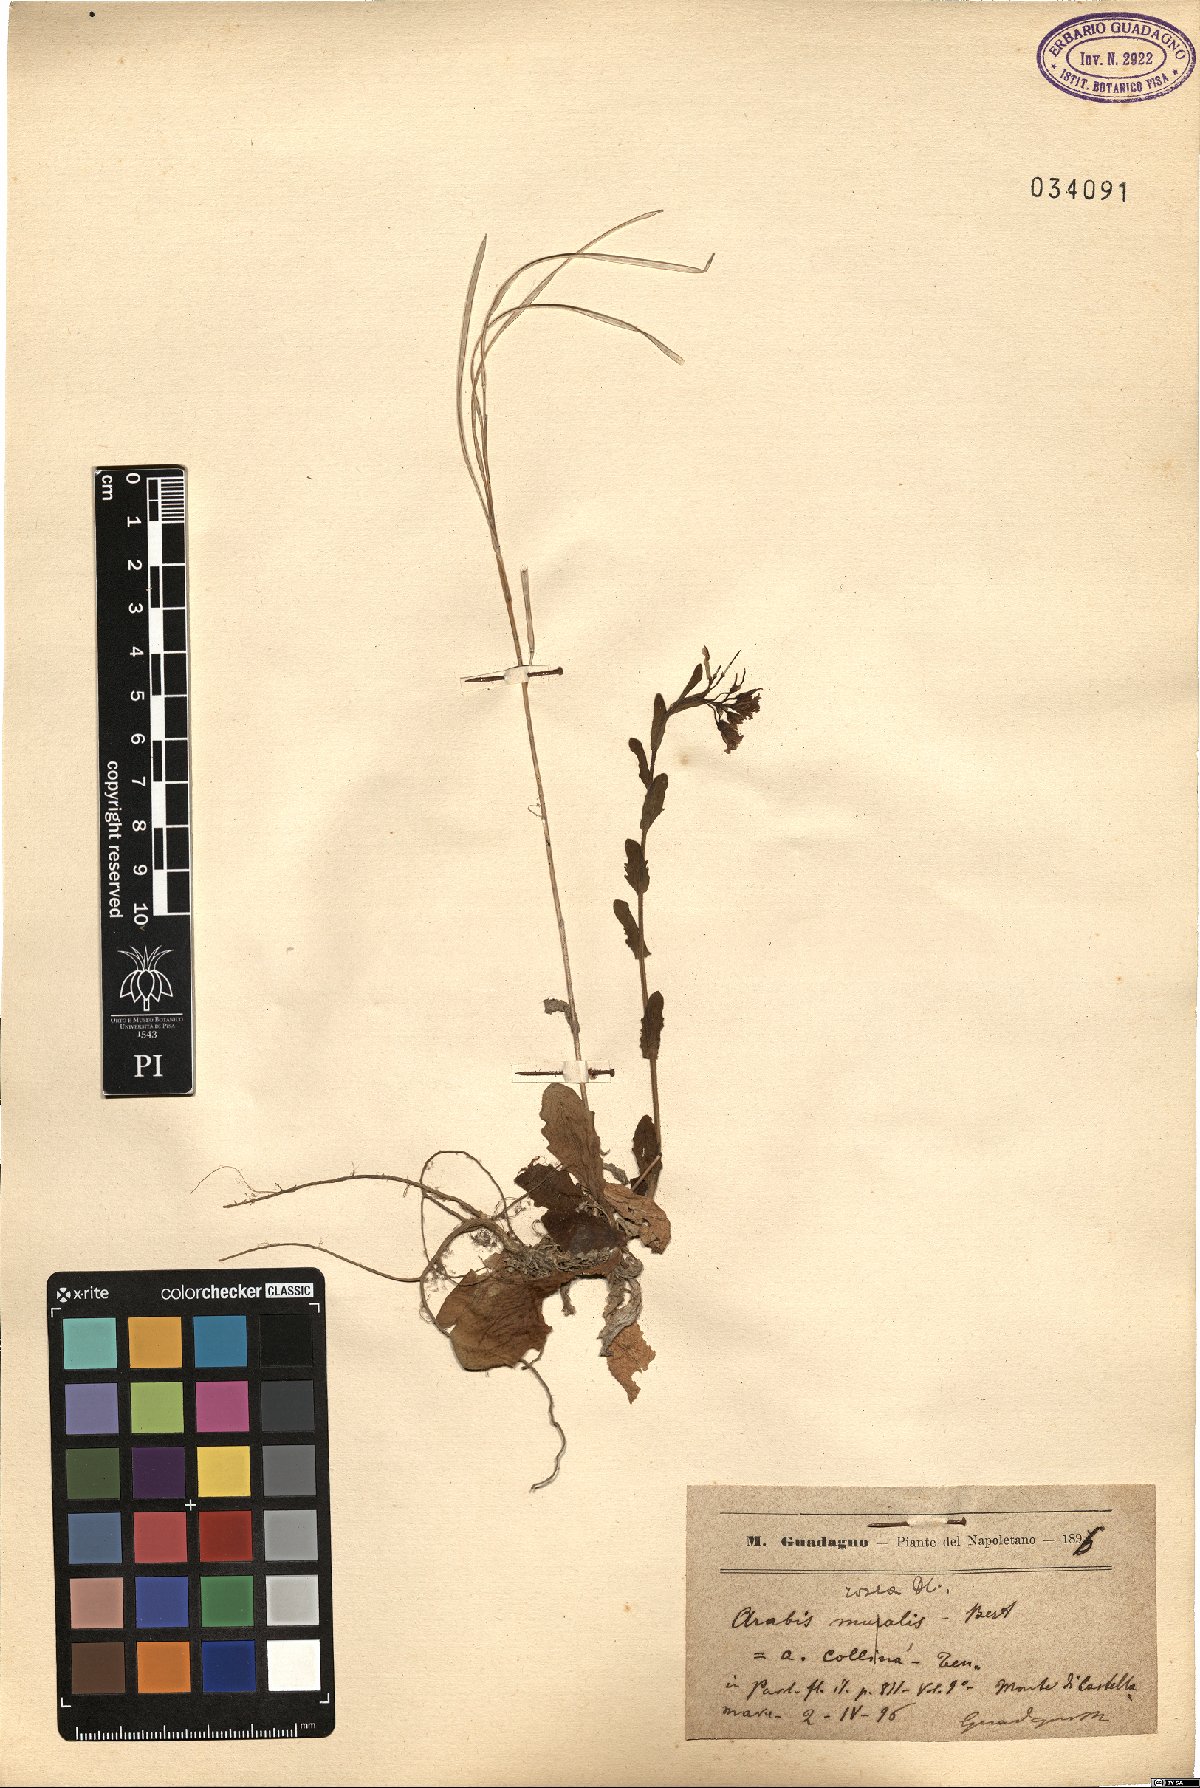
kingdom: Plantae
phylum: Tracheophyta
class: Magnoliopsida
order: Brassicales
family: Brassicaceae
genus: Arabis
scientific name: Arabis collina
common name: Rosy cress
